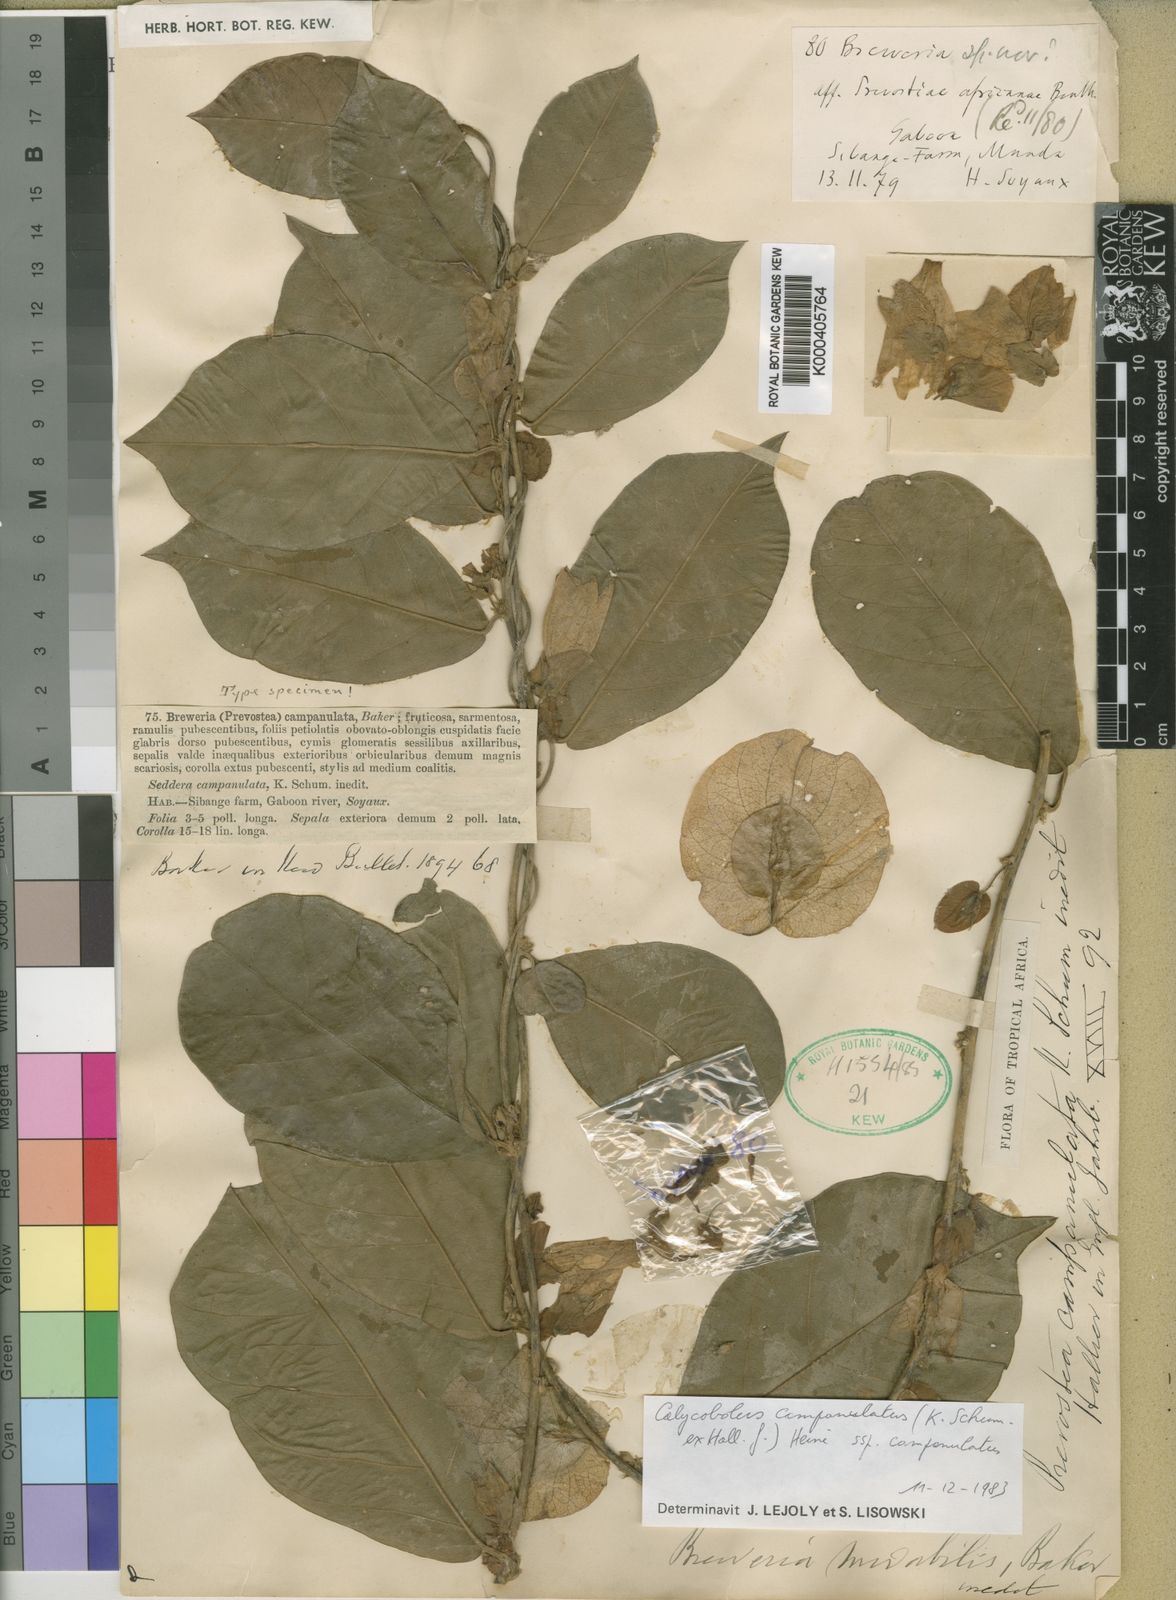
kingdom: Plantae
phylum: Tracheophyta
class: Magnoliopsida
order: Solanales
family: Convolvulaceae
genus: Calycobolus
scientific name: Calycobolus campanulatus
